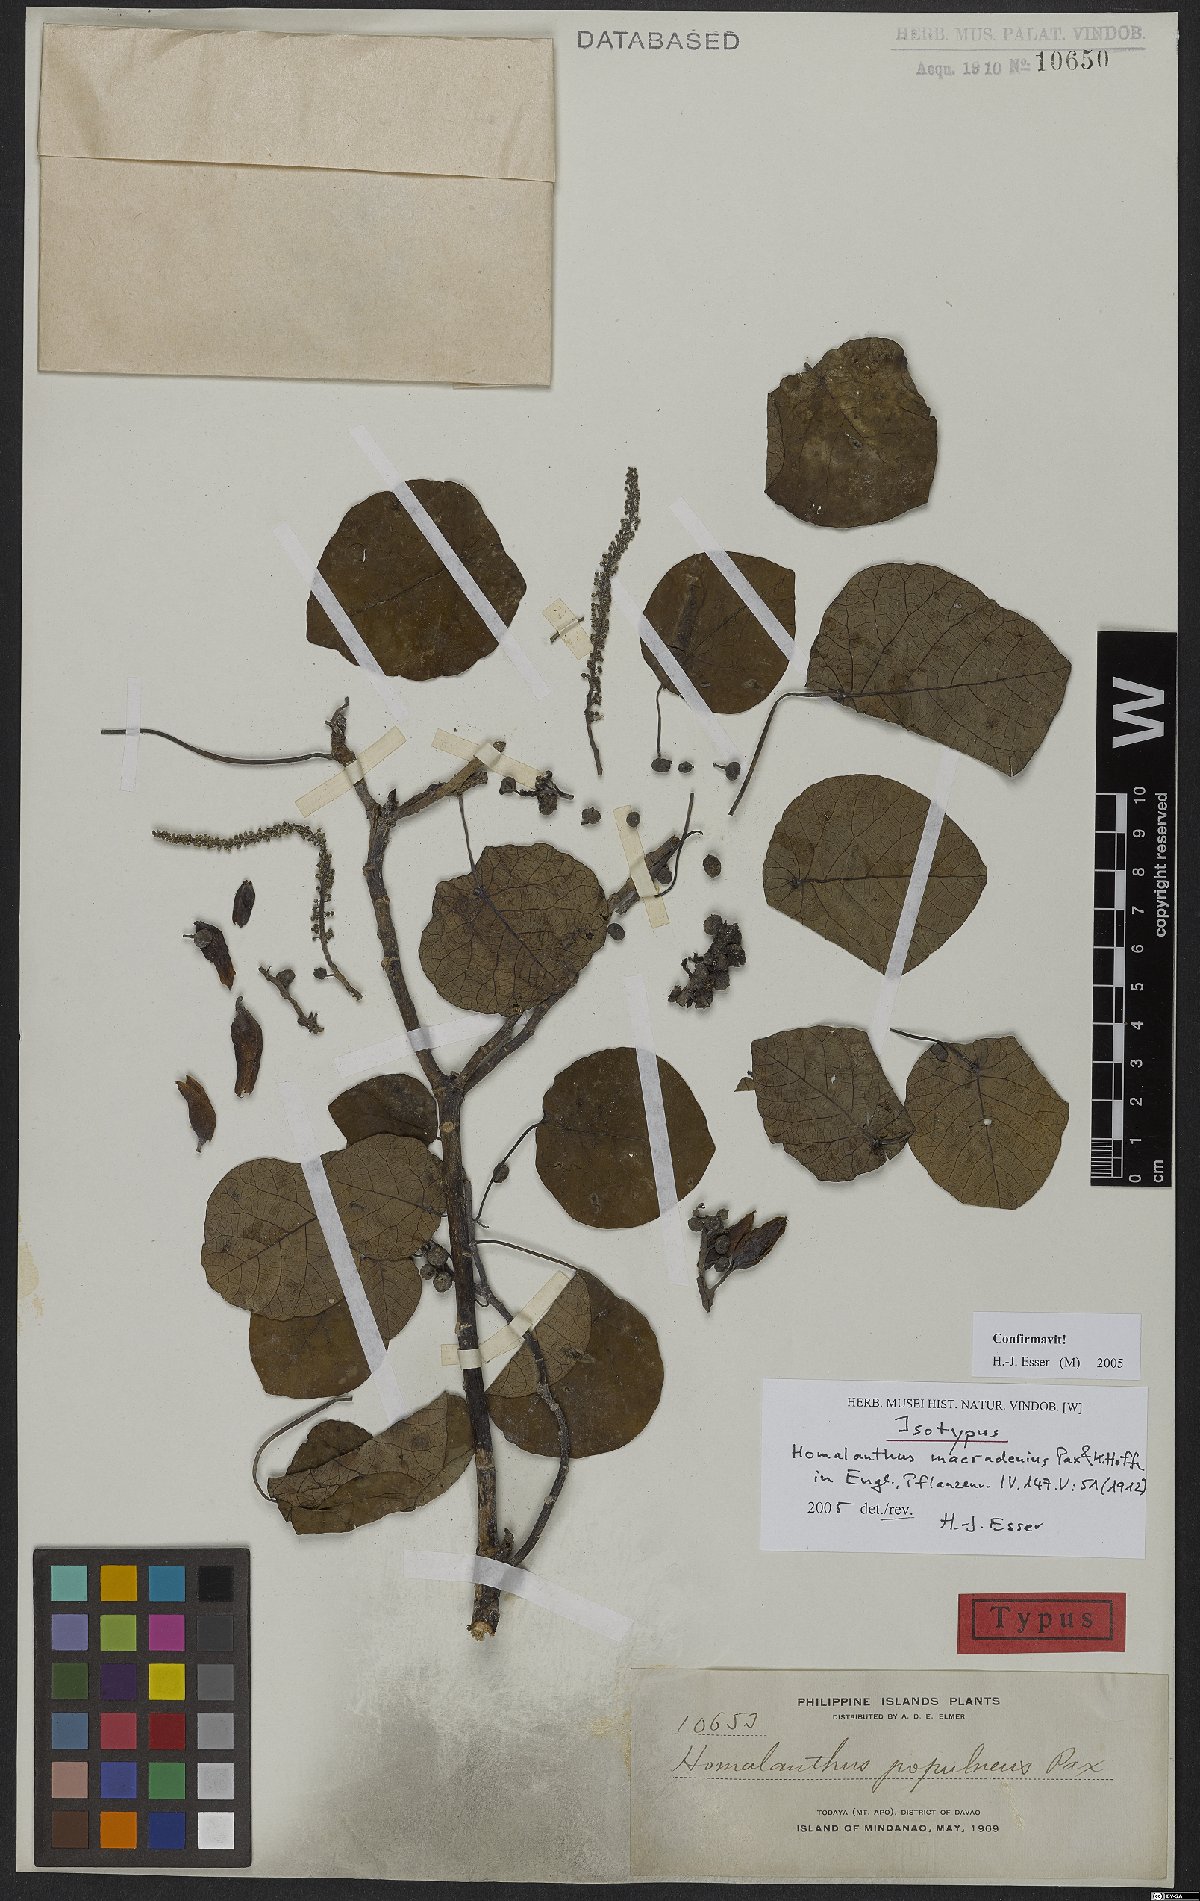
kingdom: Plantae
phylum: Tracheophyta
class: Magnoliopsida
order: Malpighiales
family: Euphorbiaceae
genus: Homalanthus
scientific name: Homalanthus macradenius
